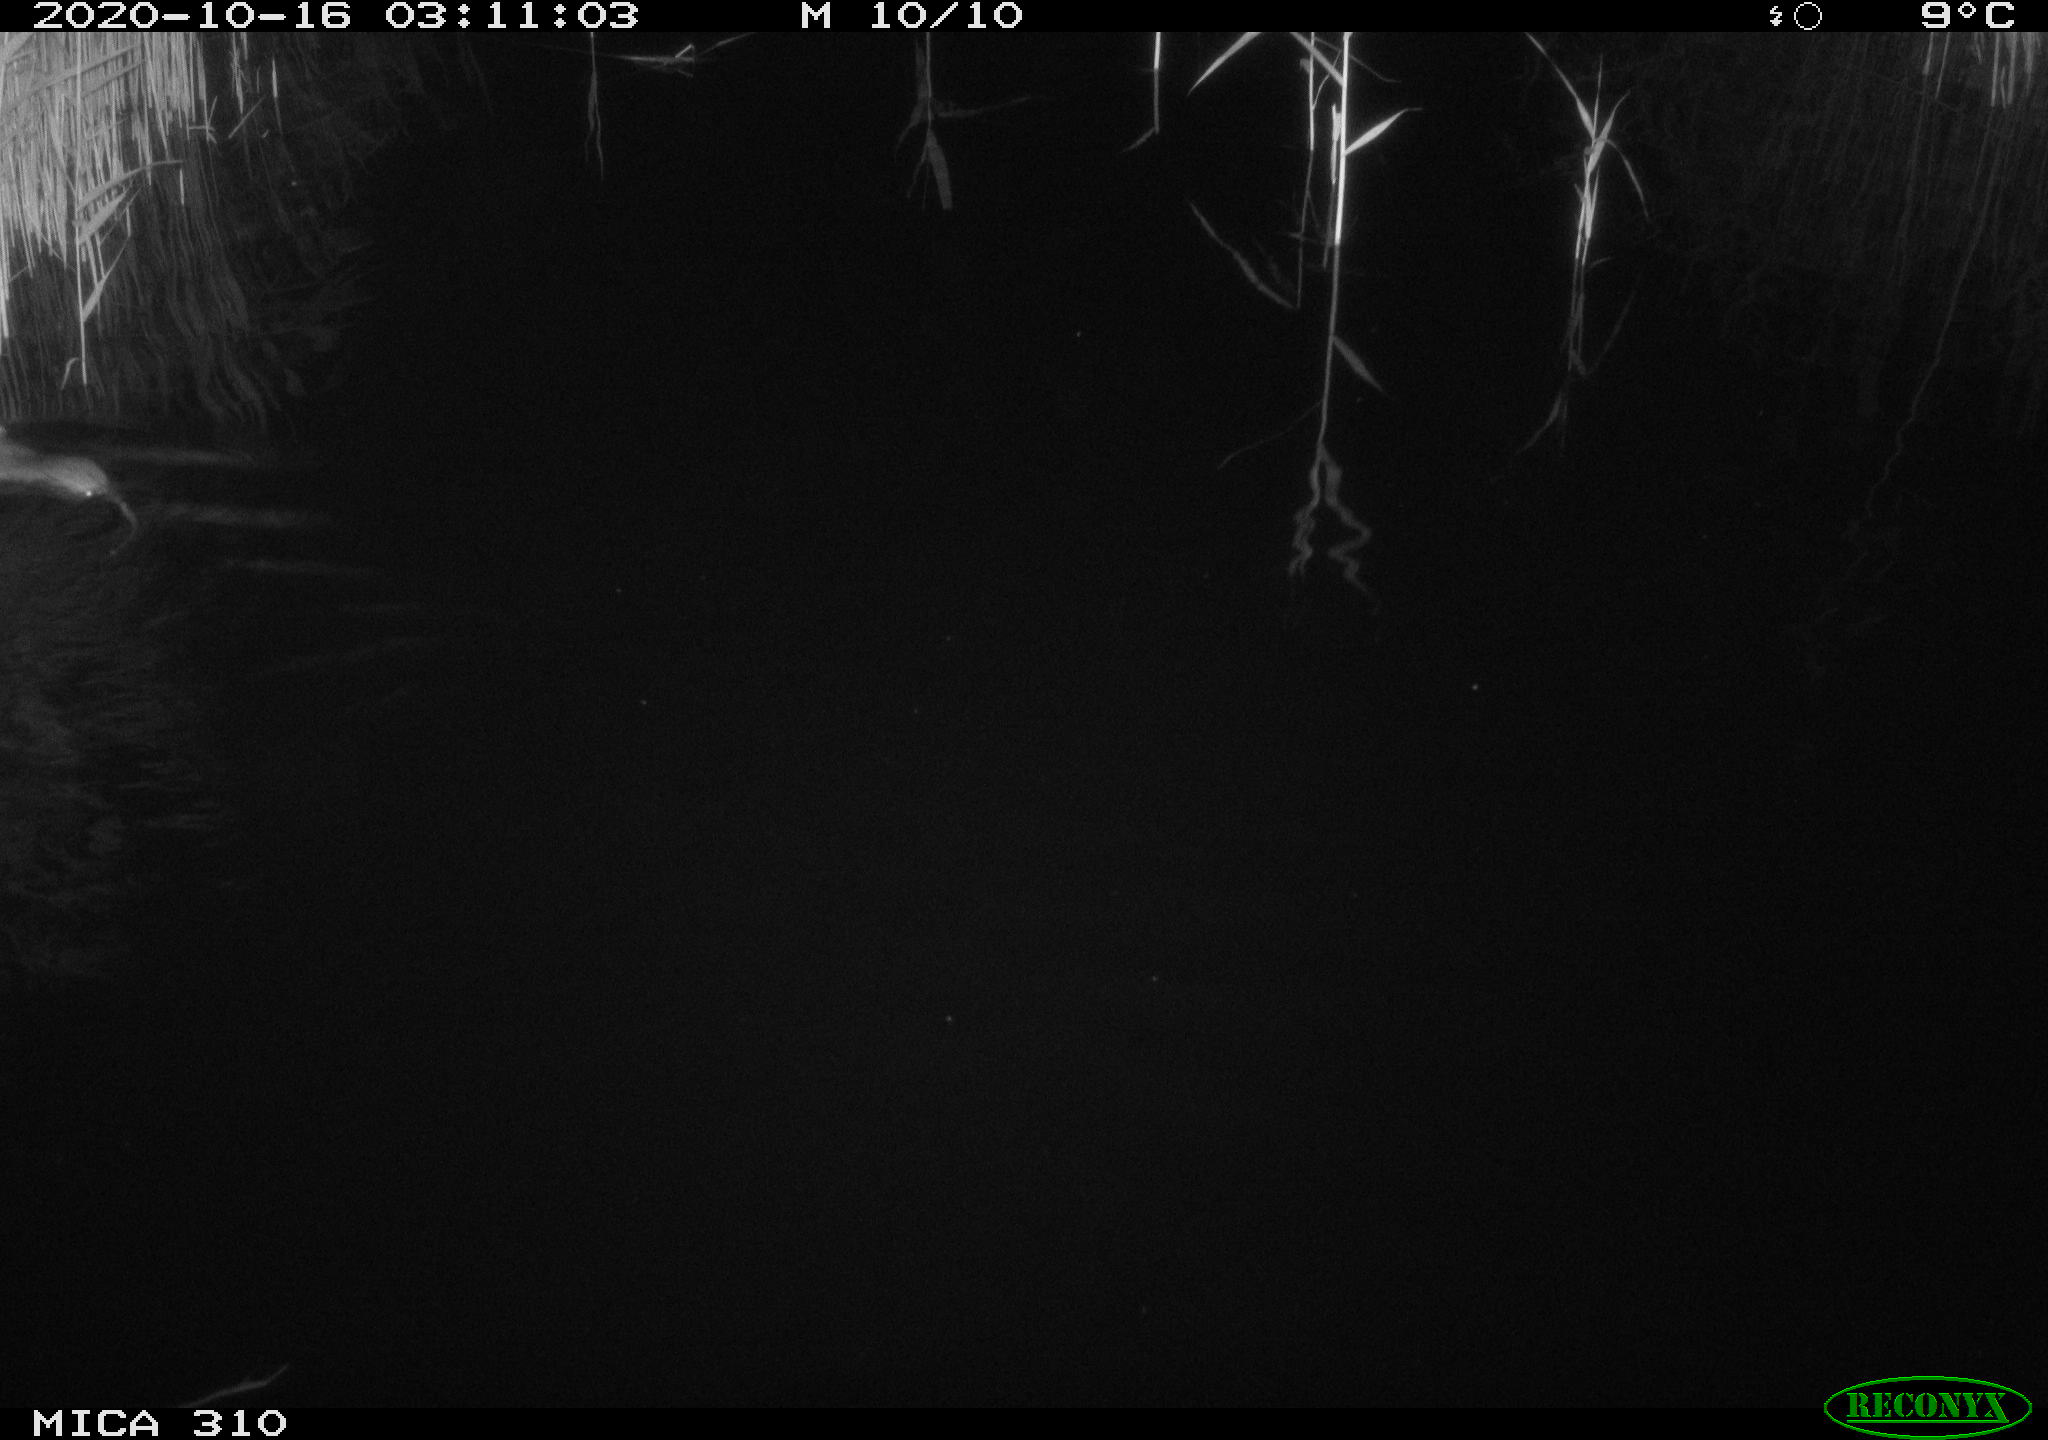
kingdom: Animalia
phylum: Chordata
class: Mammalia
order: Rodentia
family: Muridae
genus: Rattus
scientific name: Rattus norvegicus
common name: Brown rat
